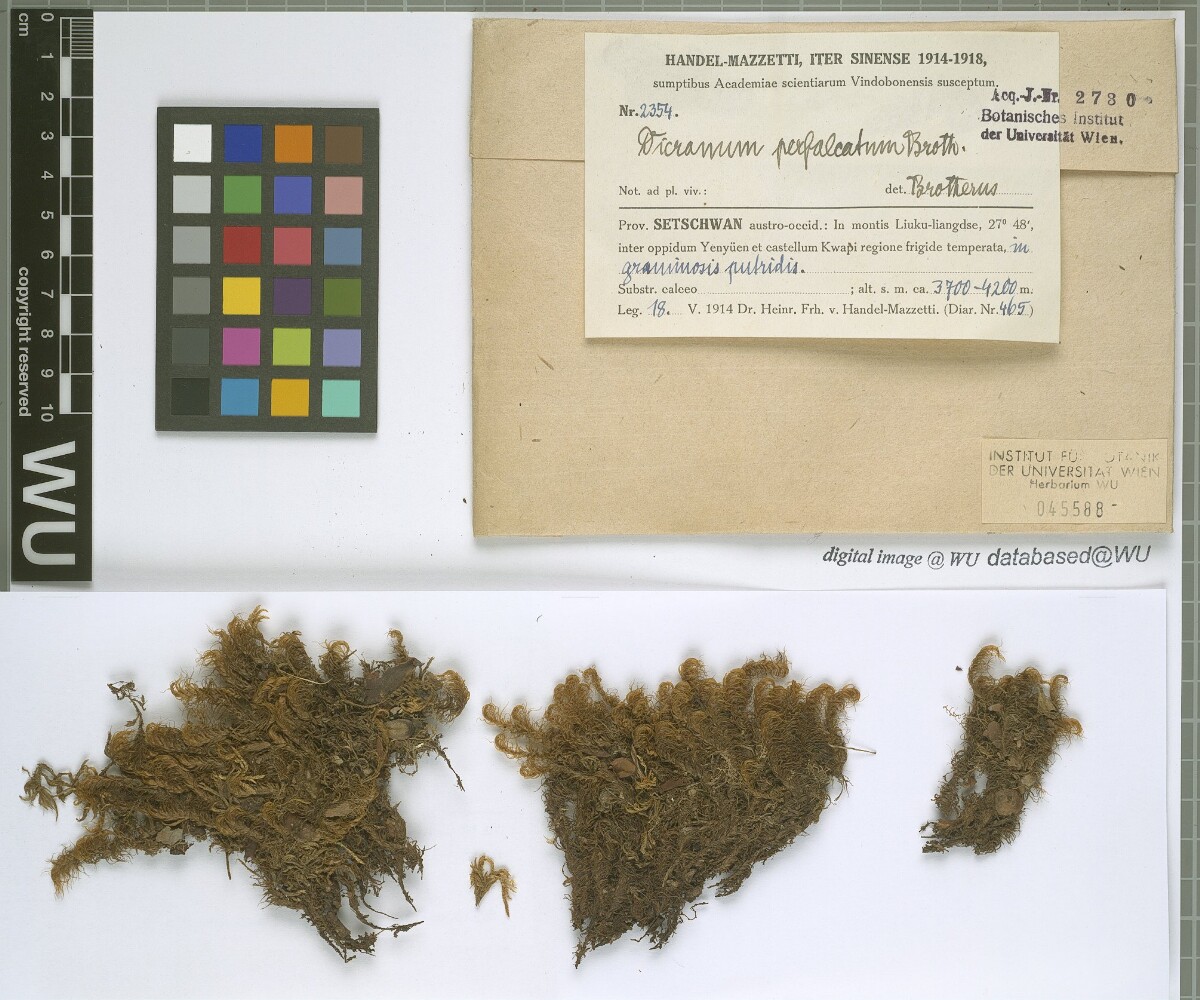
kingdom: Plantae
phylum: Bryophyta
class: Bryopsida
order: Dicranales
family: Dicranaceae
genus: Dicranum
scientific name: Dicranum drummondii
